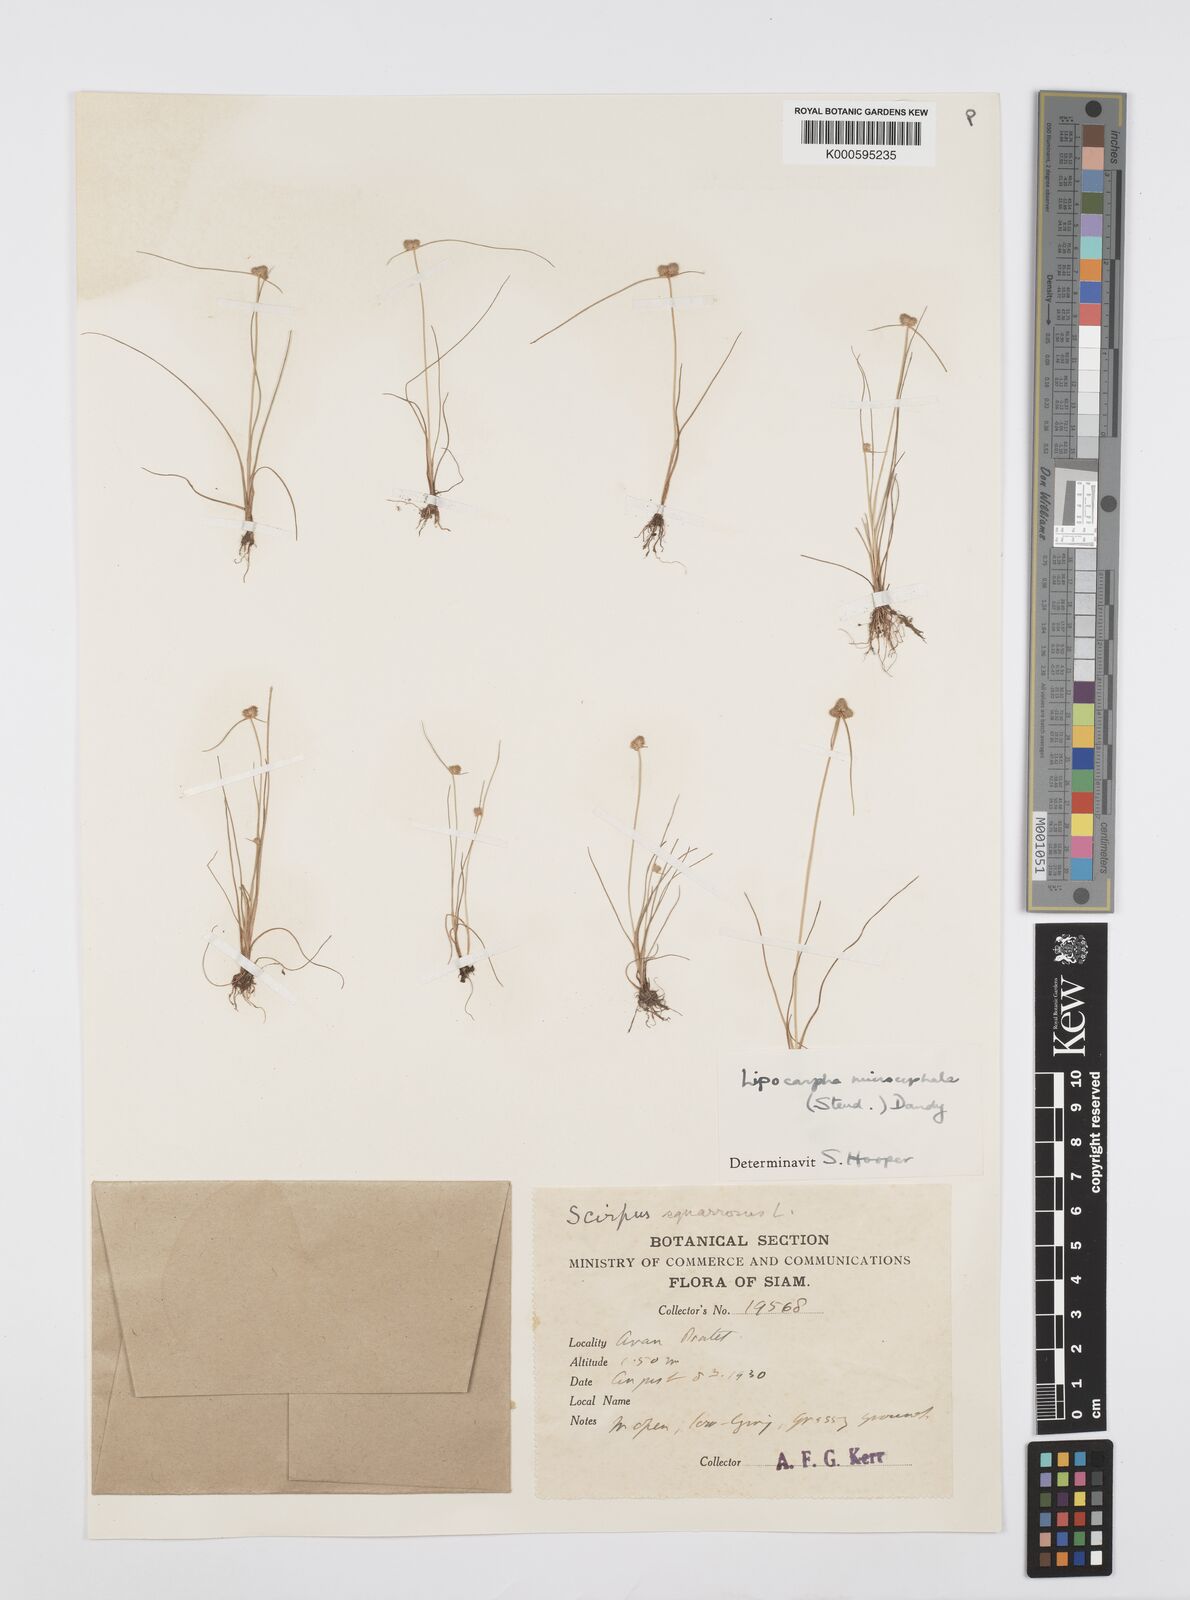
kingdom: Plantae
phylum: Tracheophyta
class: Liliopsida
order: Poales
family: Cyperaceae
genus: Cyperus
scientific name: Cyperus leptocarpus
